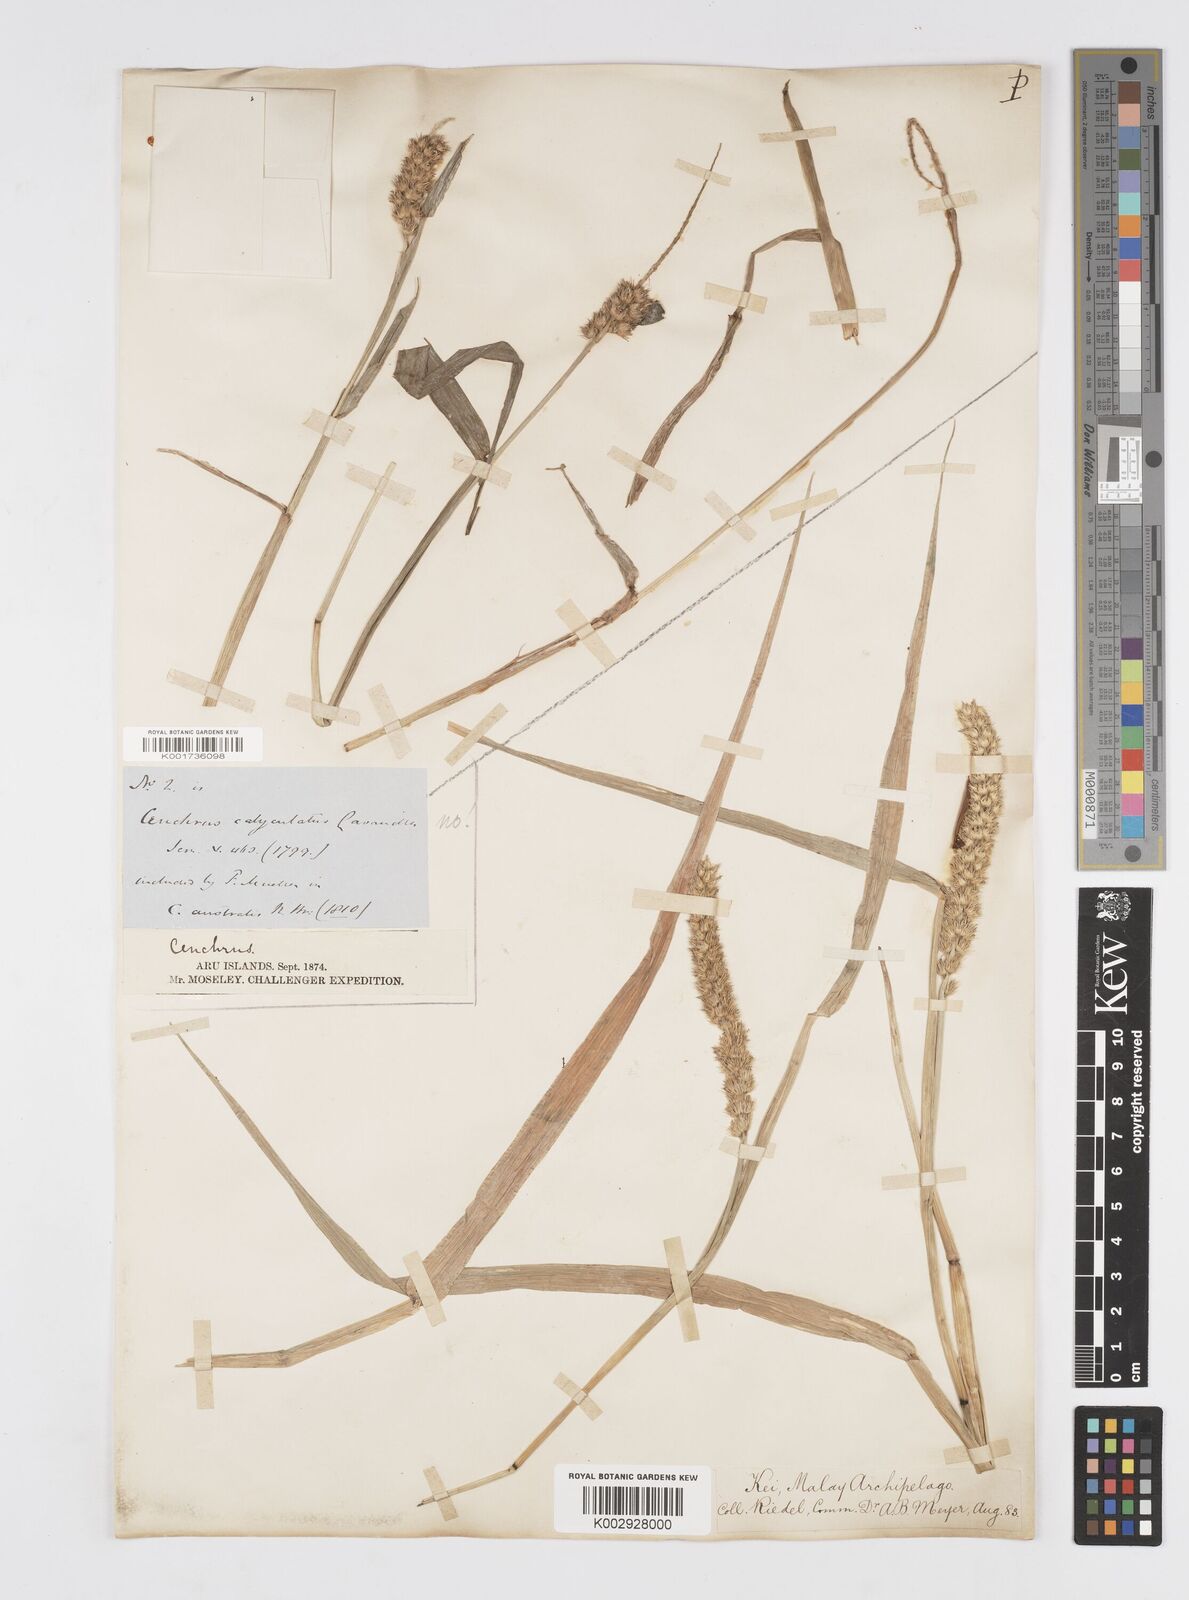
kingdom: Plantae
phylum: Tracheophyta
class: Liliopsida
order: Poales
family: Poaceae
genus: Cenchrus
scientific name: Cenchrus brownii
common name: Slim-bristle sandbur
